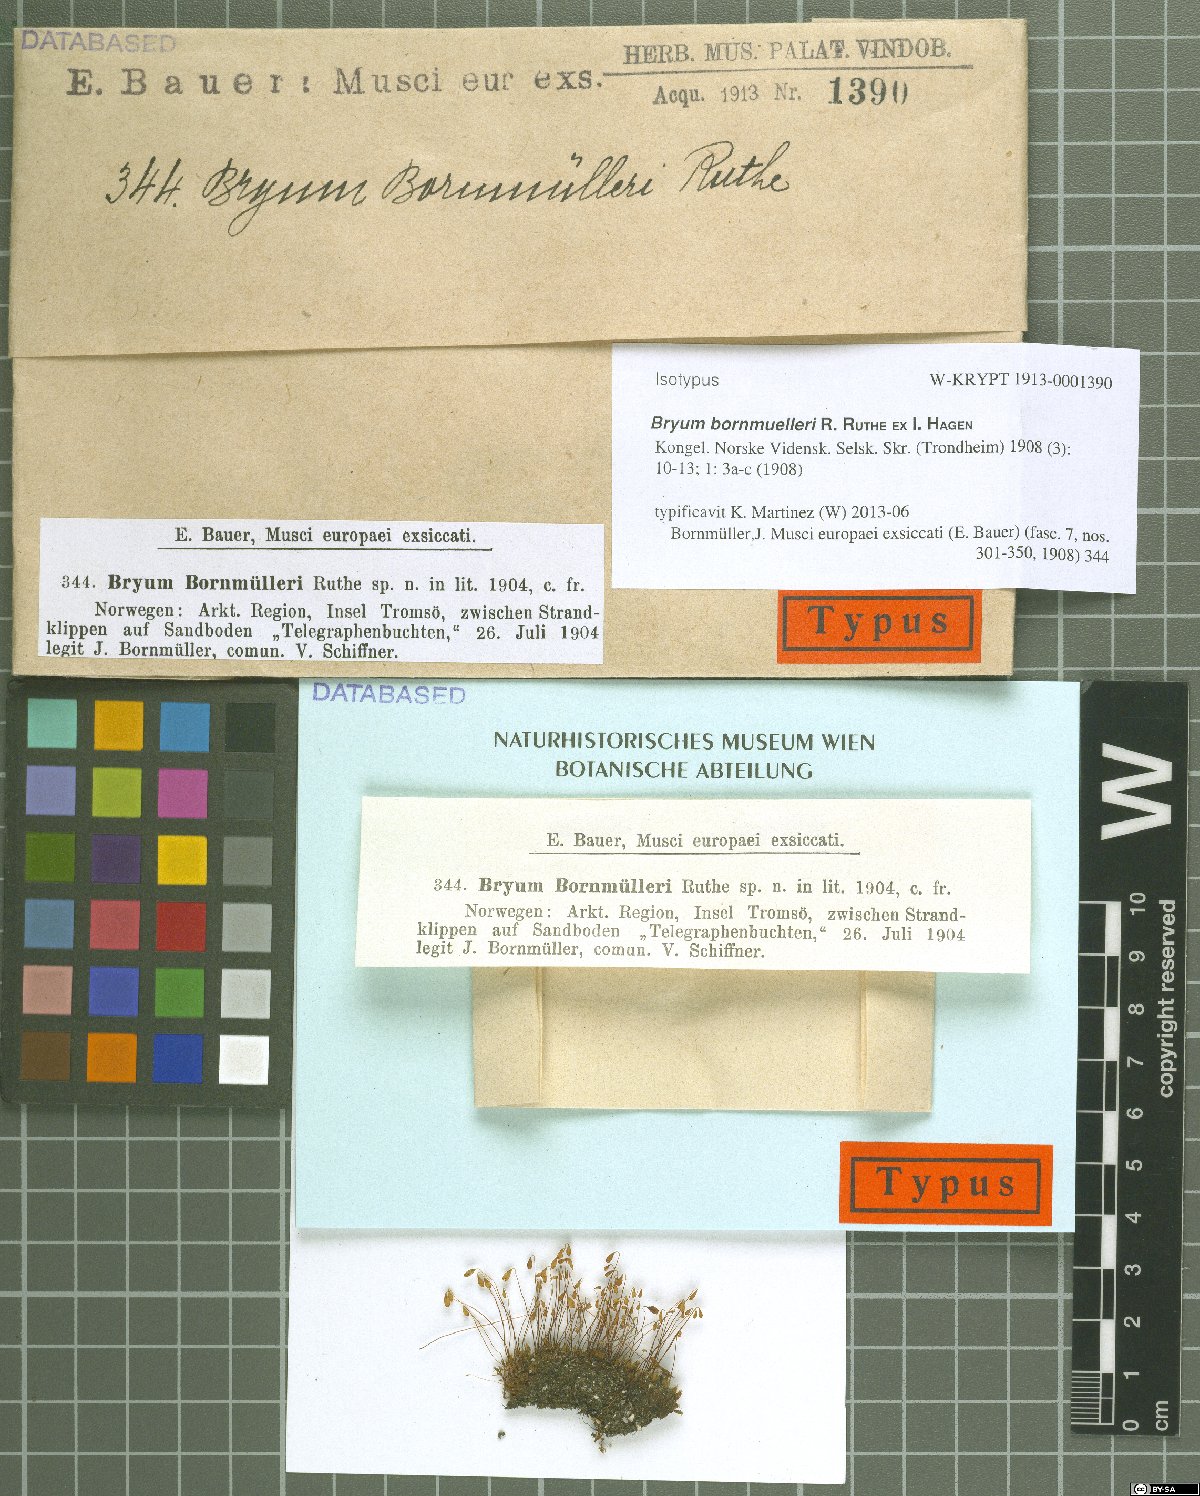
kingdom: Plantae
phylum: Bryophyta
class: Bryopsida
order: Bryales
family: Bryaceae
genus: Ptychostomum
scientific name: Ptychostomum warneum
